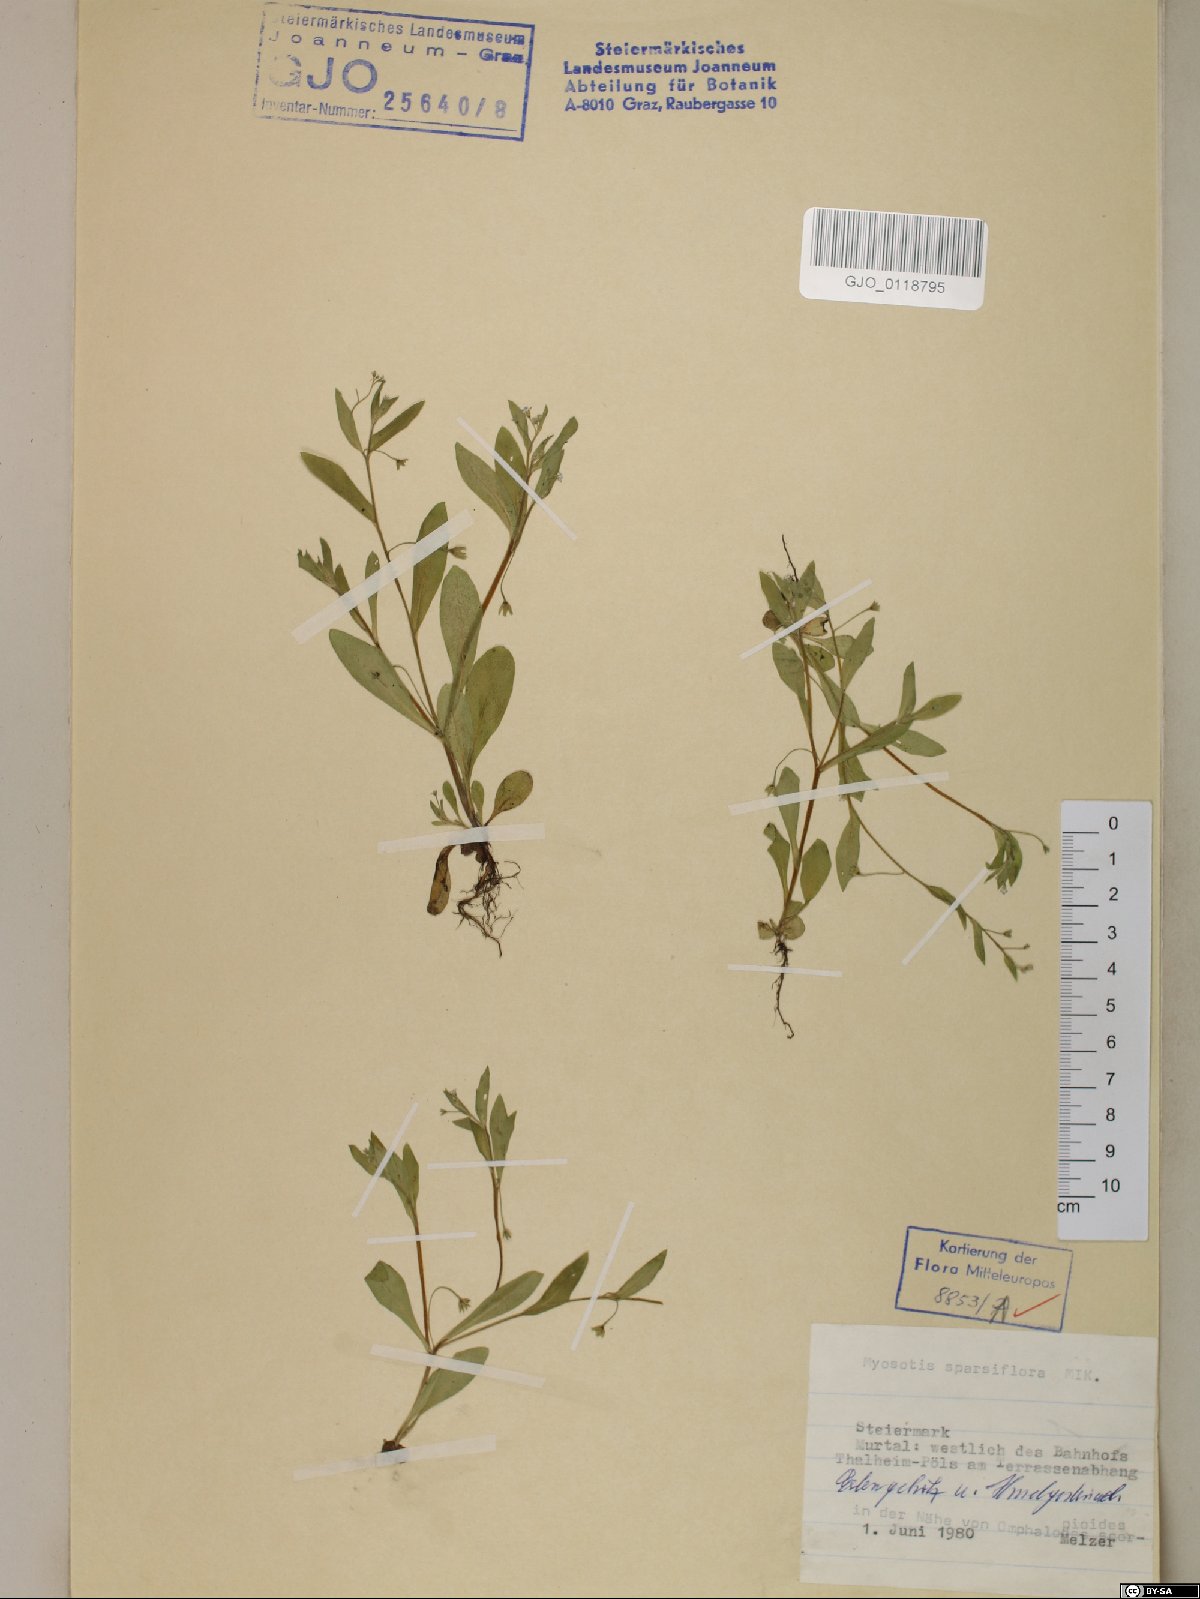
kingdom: Plantae
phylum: Tracheophyta
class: Magnoliopsida
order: Boraginales
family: Boraginaceae
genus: Myosotis
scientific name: Myosotis sparsiflora
